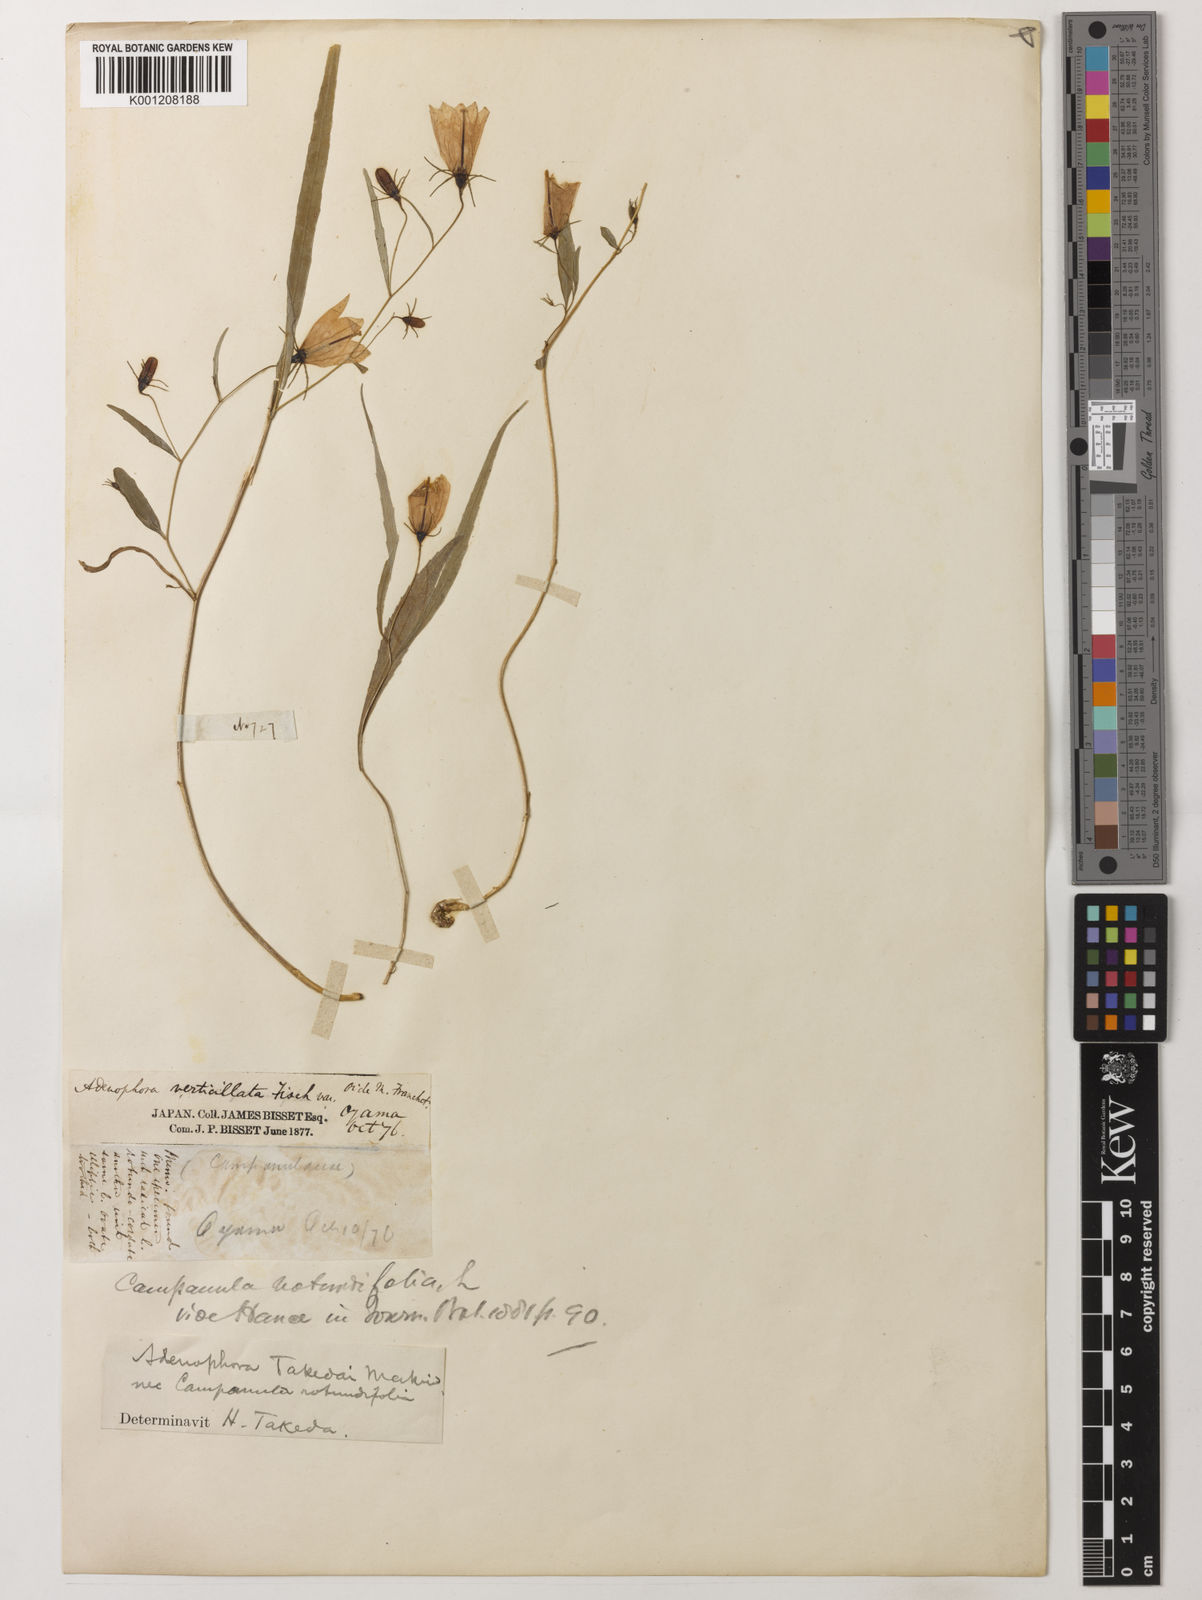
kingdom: Plantae
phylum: Tracheophyta
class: Magnoliopsida
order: Asterales
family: Campanulaceae
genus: Adenophora
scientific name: Adenophora
